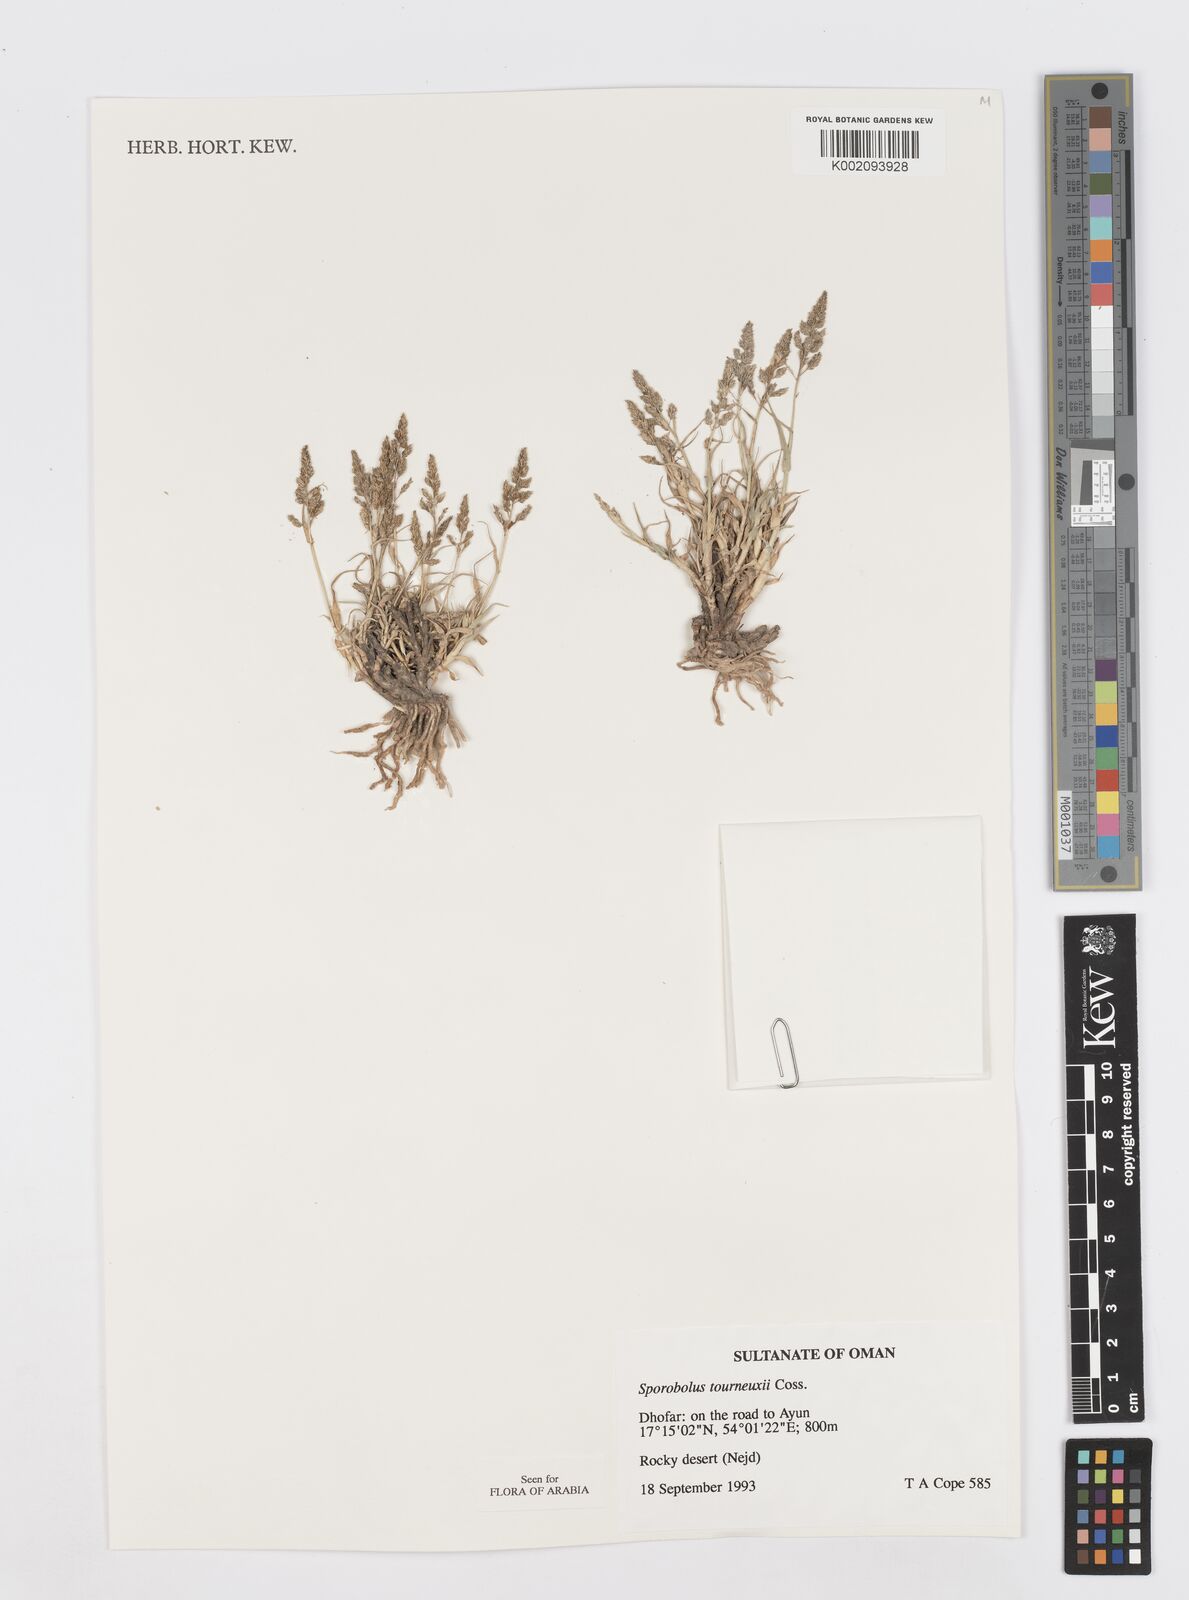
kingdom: Plantae
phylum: Tracheophyta
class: Liliopsida
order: Poales
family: Poaceae
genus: Sporobolus
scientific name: Sporobolus tourneuxii
